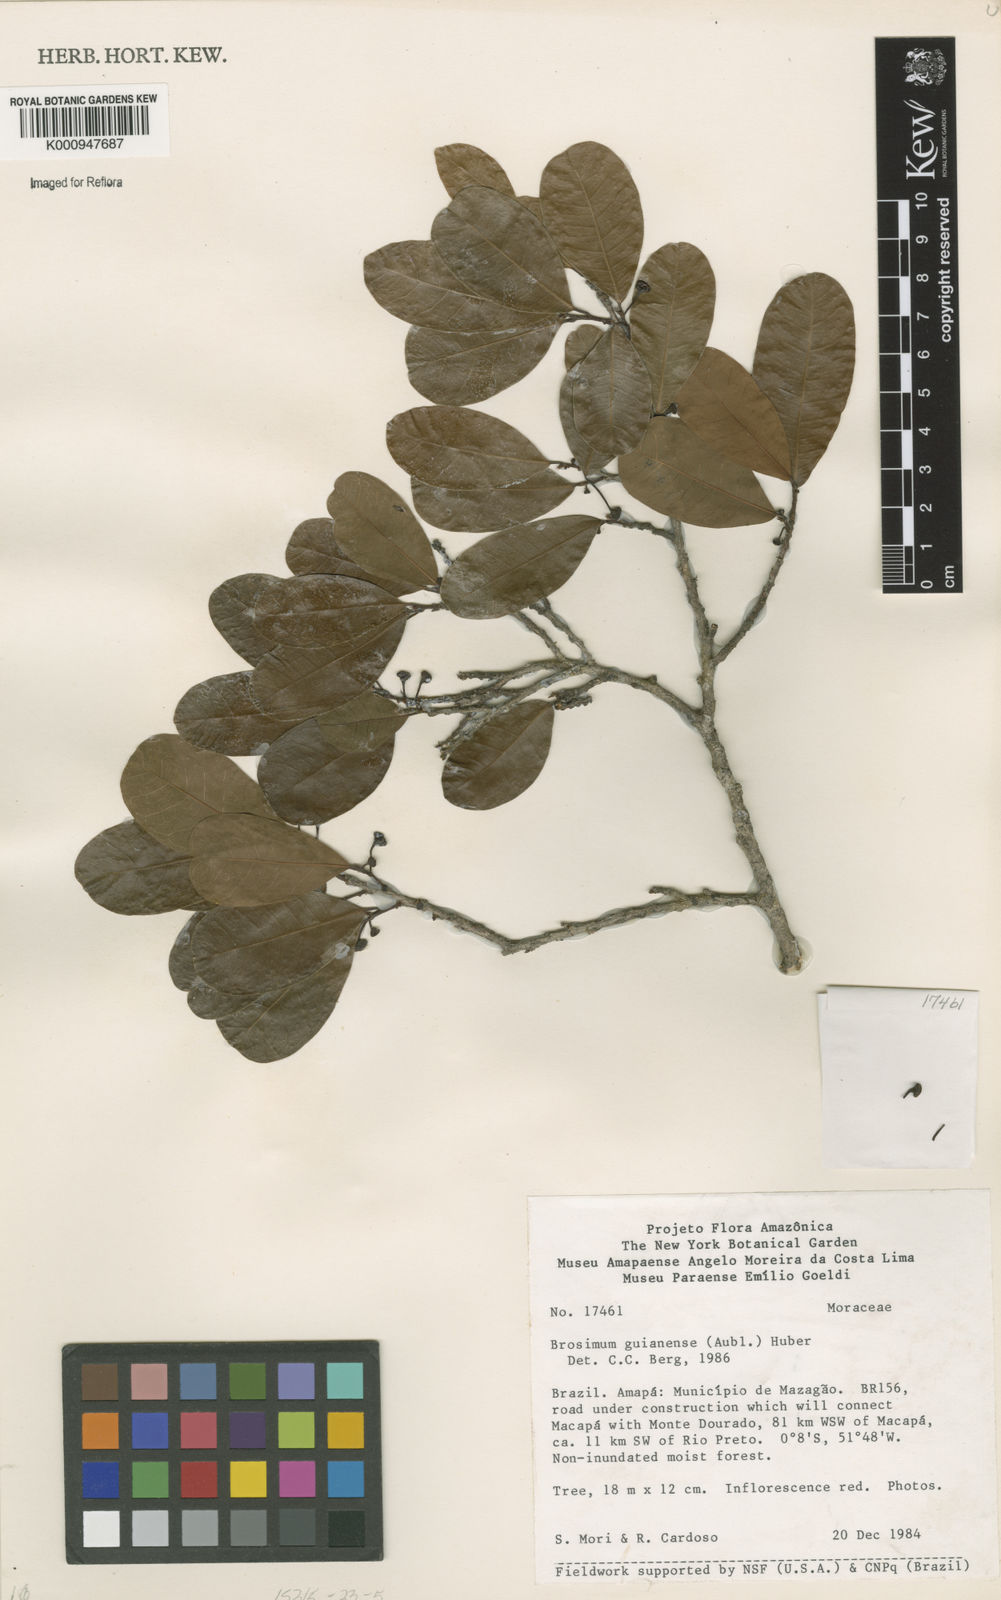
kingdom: Plantae
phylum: Tracheophyta
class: Magnoliopsida
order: Rosales
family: Moraceae
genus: Brosimum
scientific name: Brosimum
